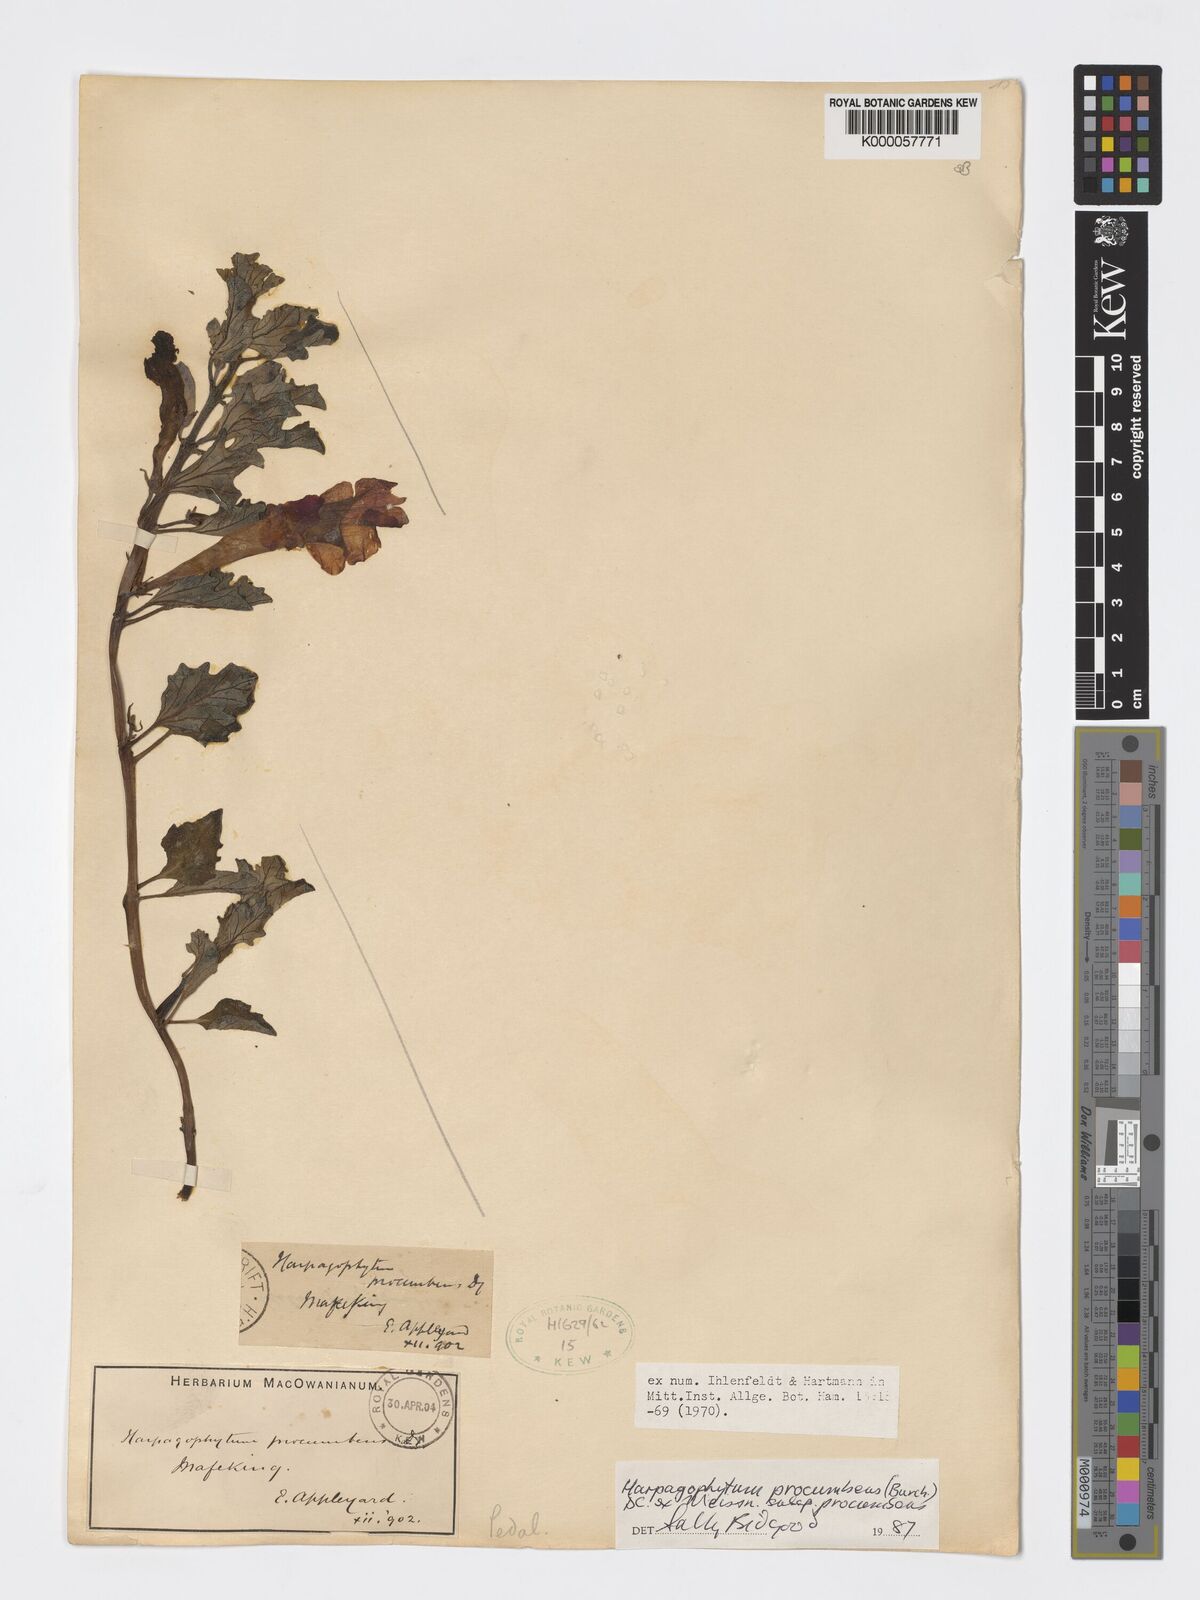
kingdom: Plantae
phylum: Tracheophyta
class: Magnoliopsida
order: Lamiales
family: Pedaliaceae
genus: Harpagophytum
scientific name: Harpagophytum procumbens
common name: Grappleplant
